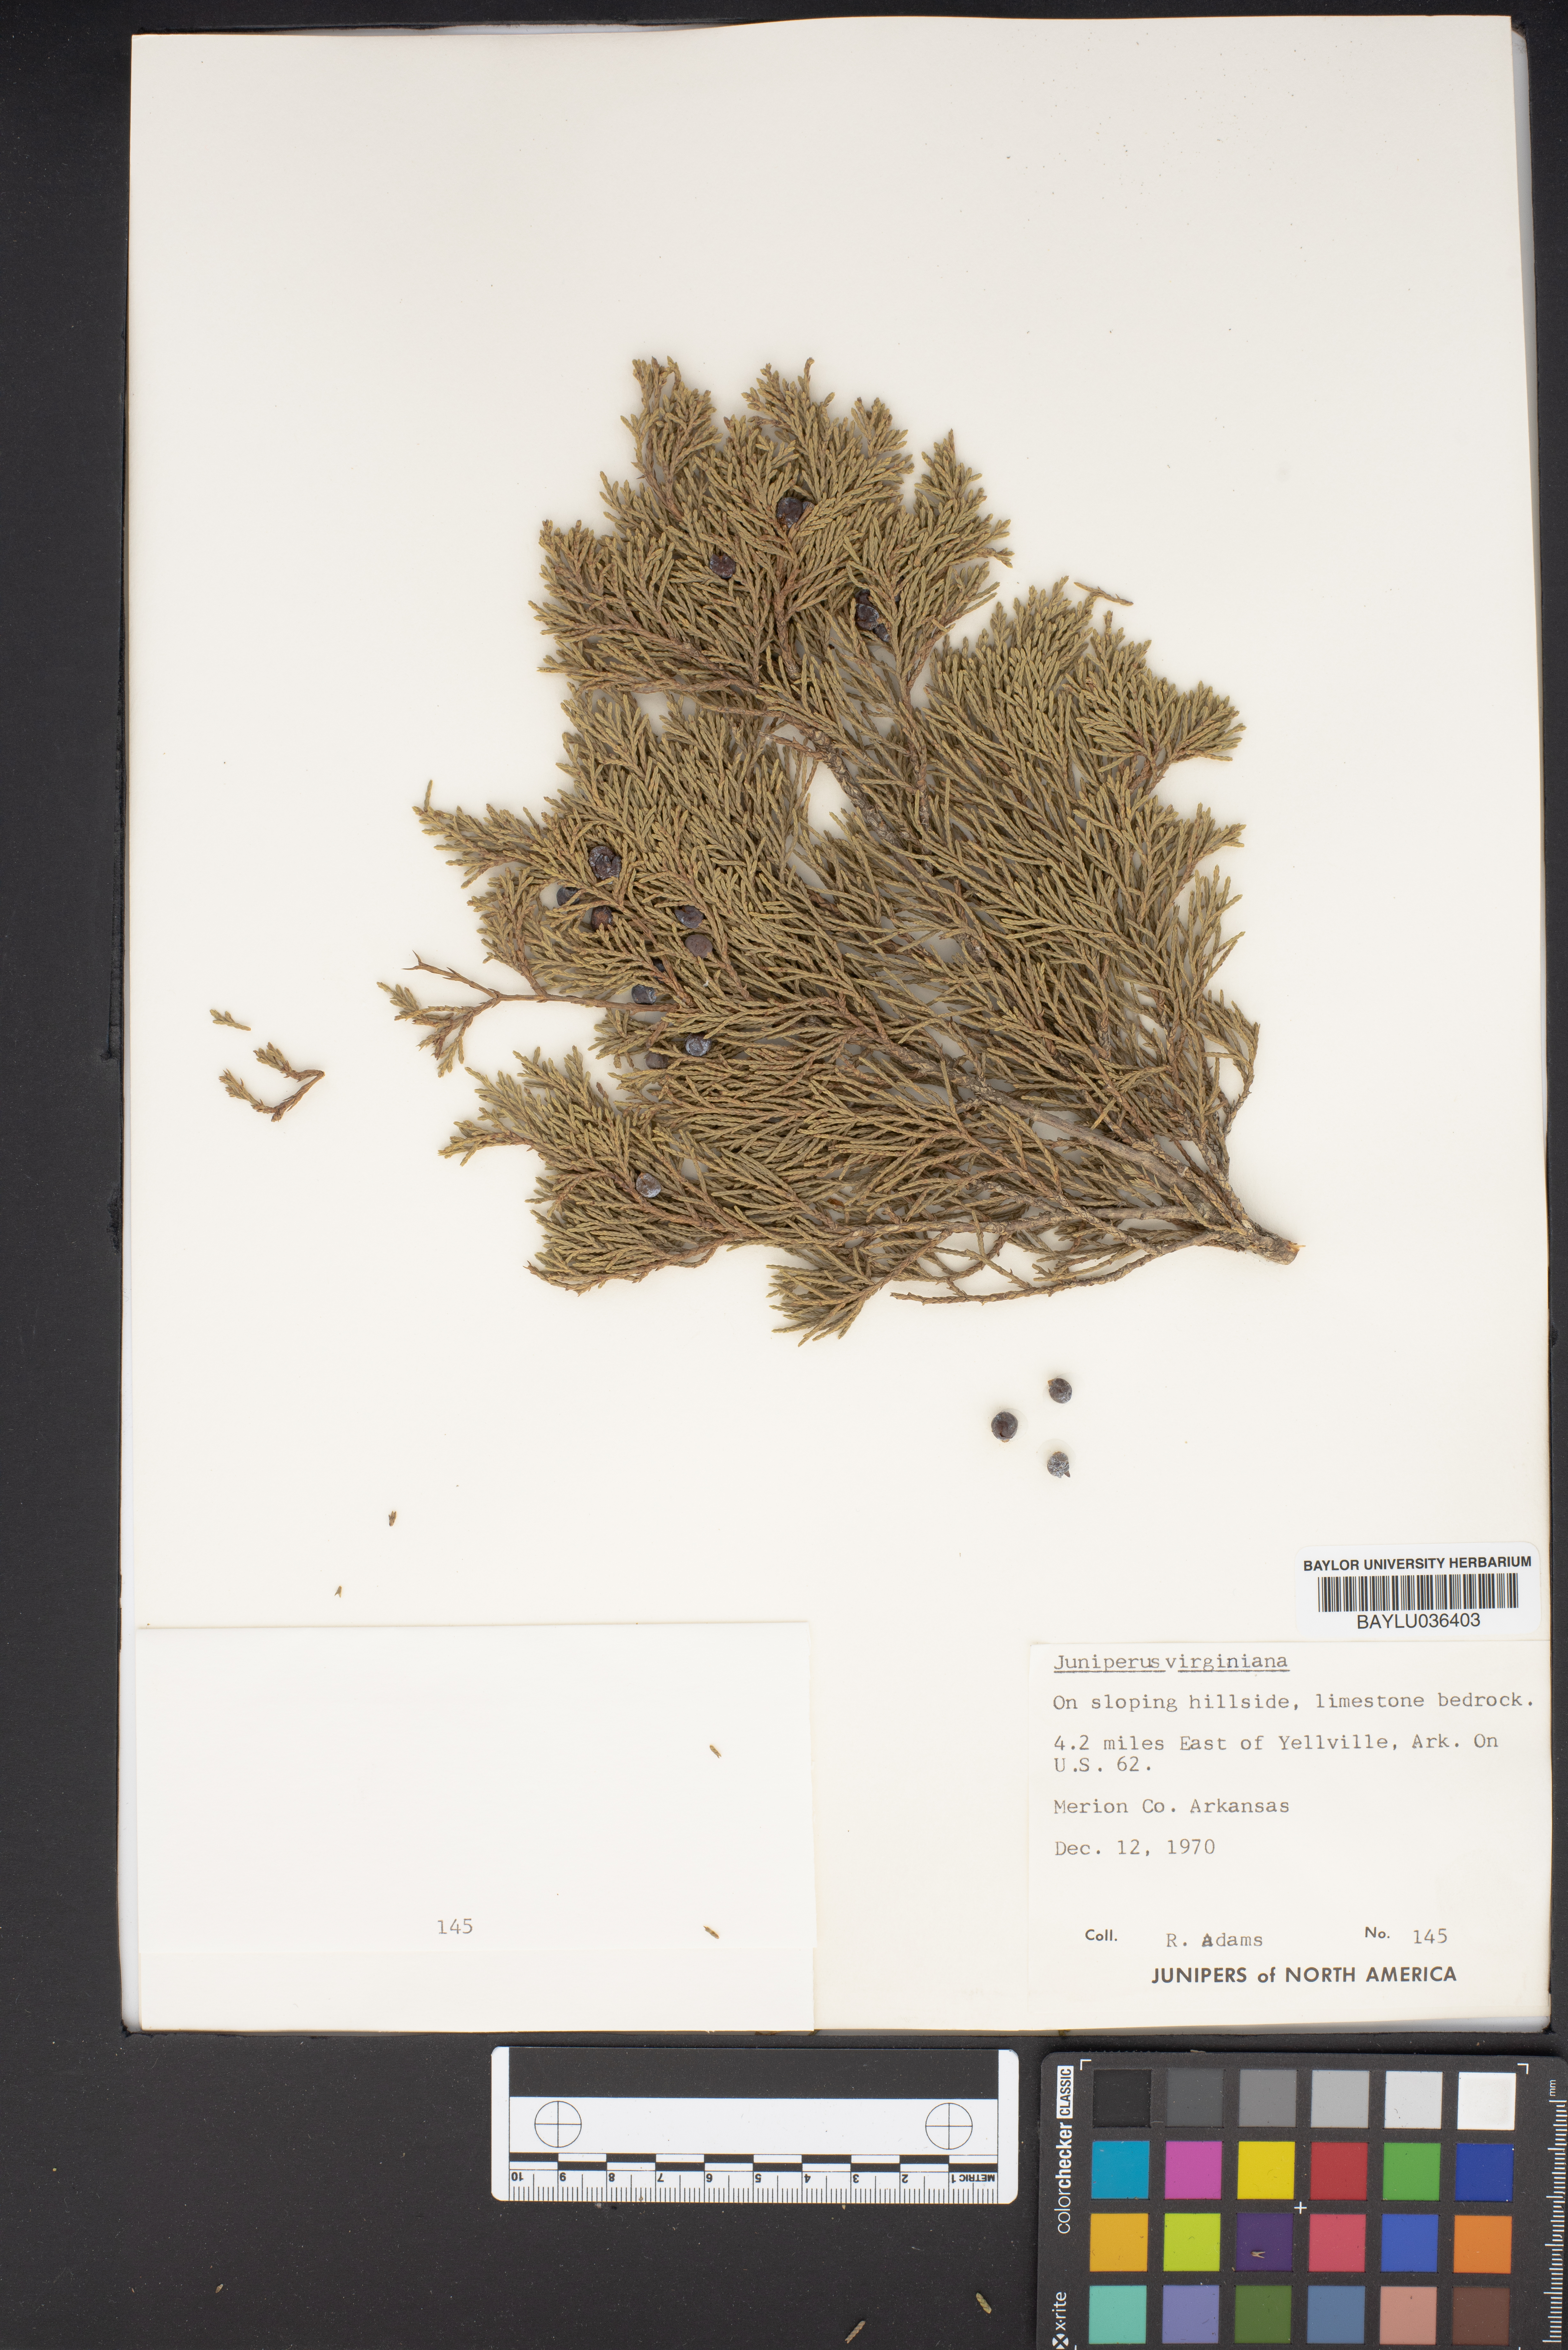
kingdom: Plantae
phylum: Tracheophyta
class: Pinopsida
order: Pinales
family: Cupressaceae
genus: Juniperus
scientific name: Juniperus virginiana
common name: Red juniper
